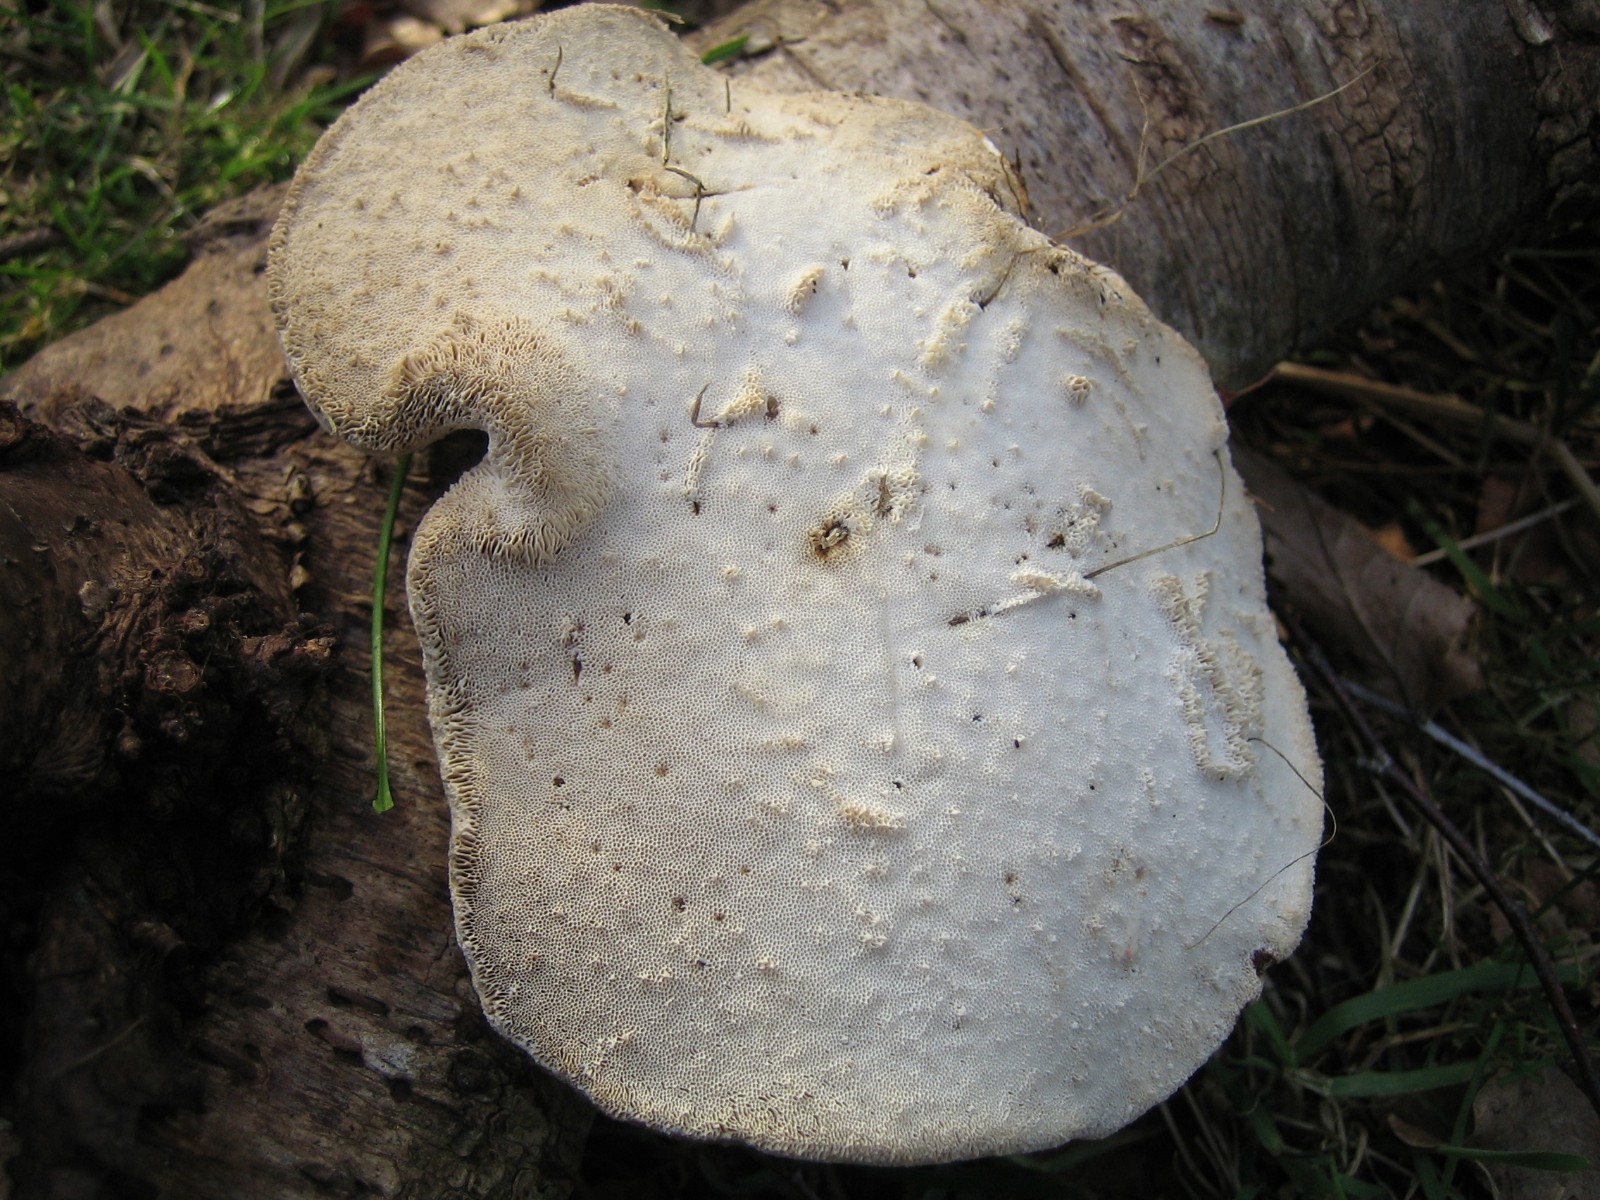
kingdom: Fungi
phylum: Basidiomycota
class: Agaricomycetes
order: Polyporales
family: Fomitopsidaceae
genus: Fomitopsis
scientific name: Fomitopsis betulina
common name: birkeporesvamp
